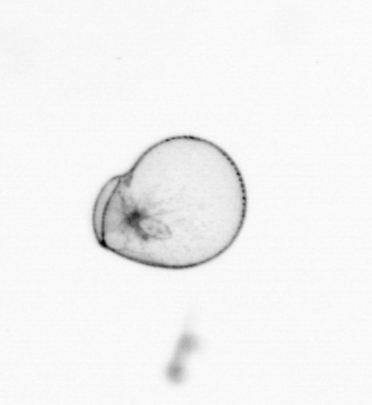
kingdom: Chromista
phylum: Myzozoa
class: Dinophyceae
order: Noctilucales
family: Noctilucaceae
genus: Noctiluca
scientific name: Noctiluca scintillans
